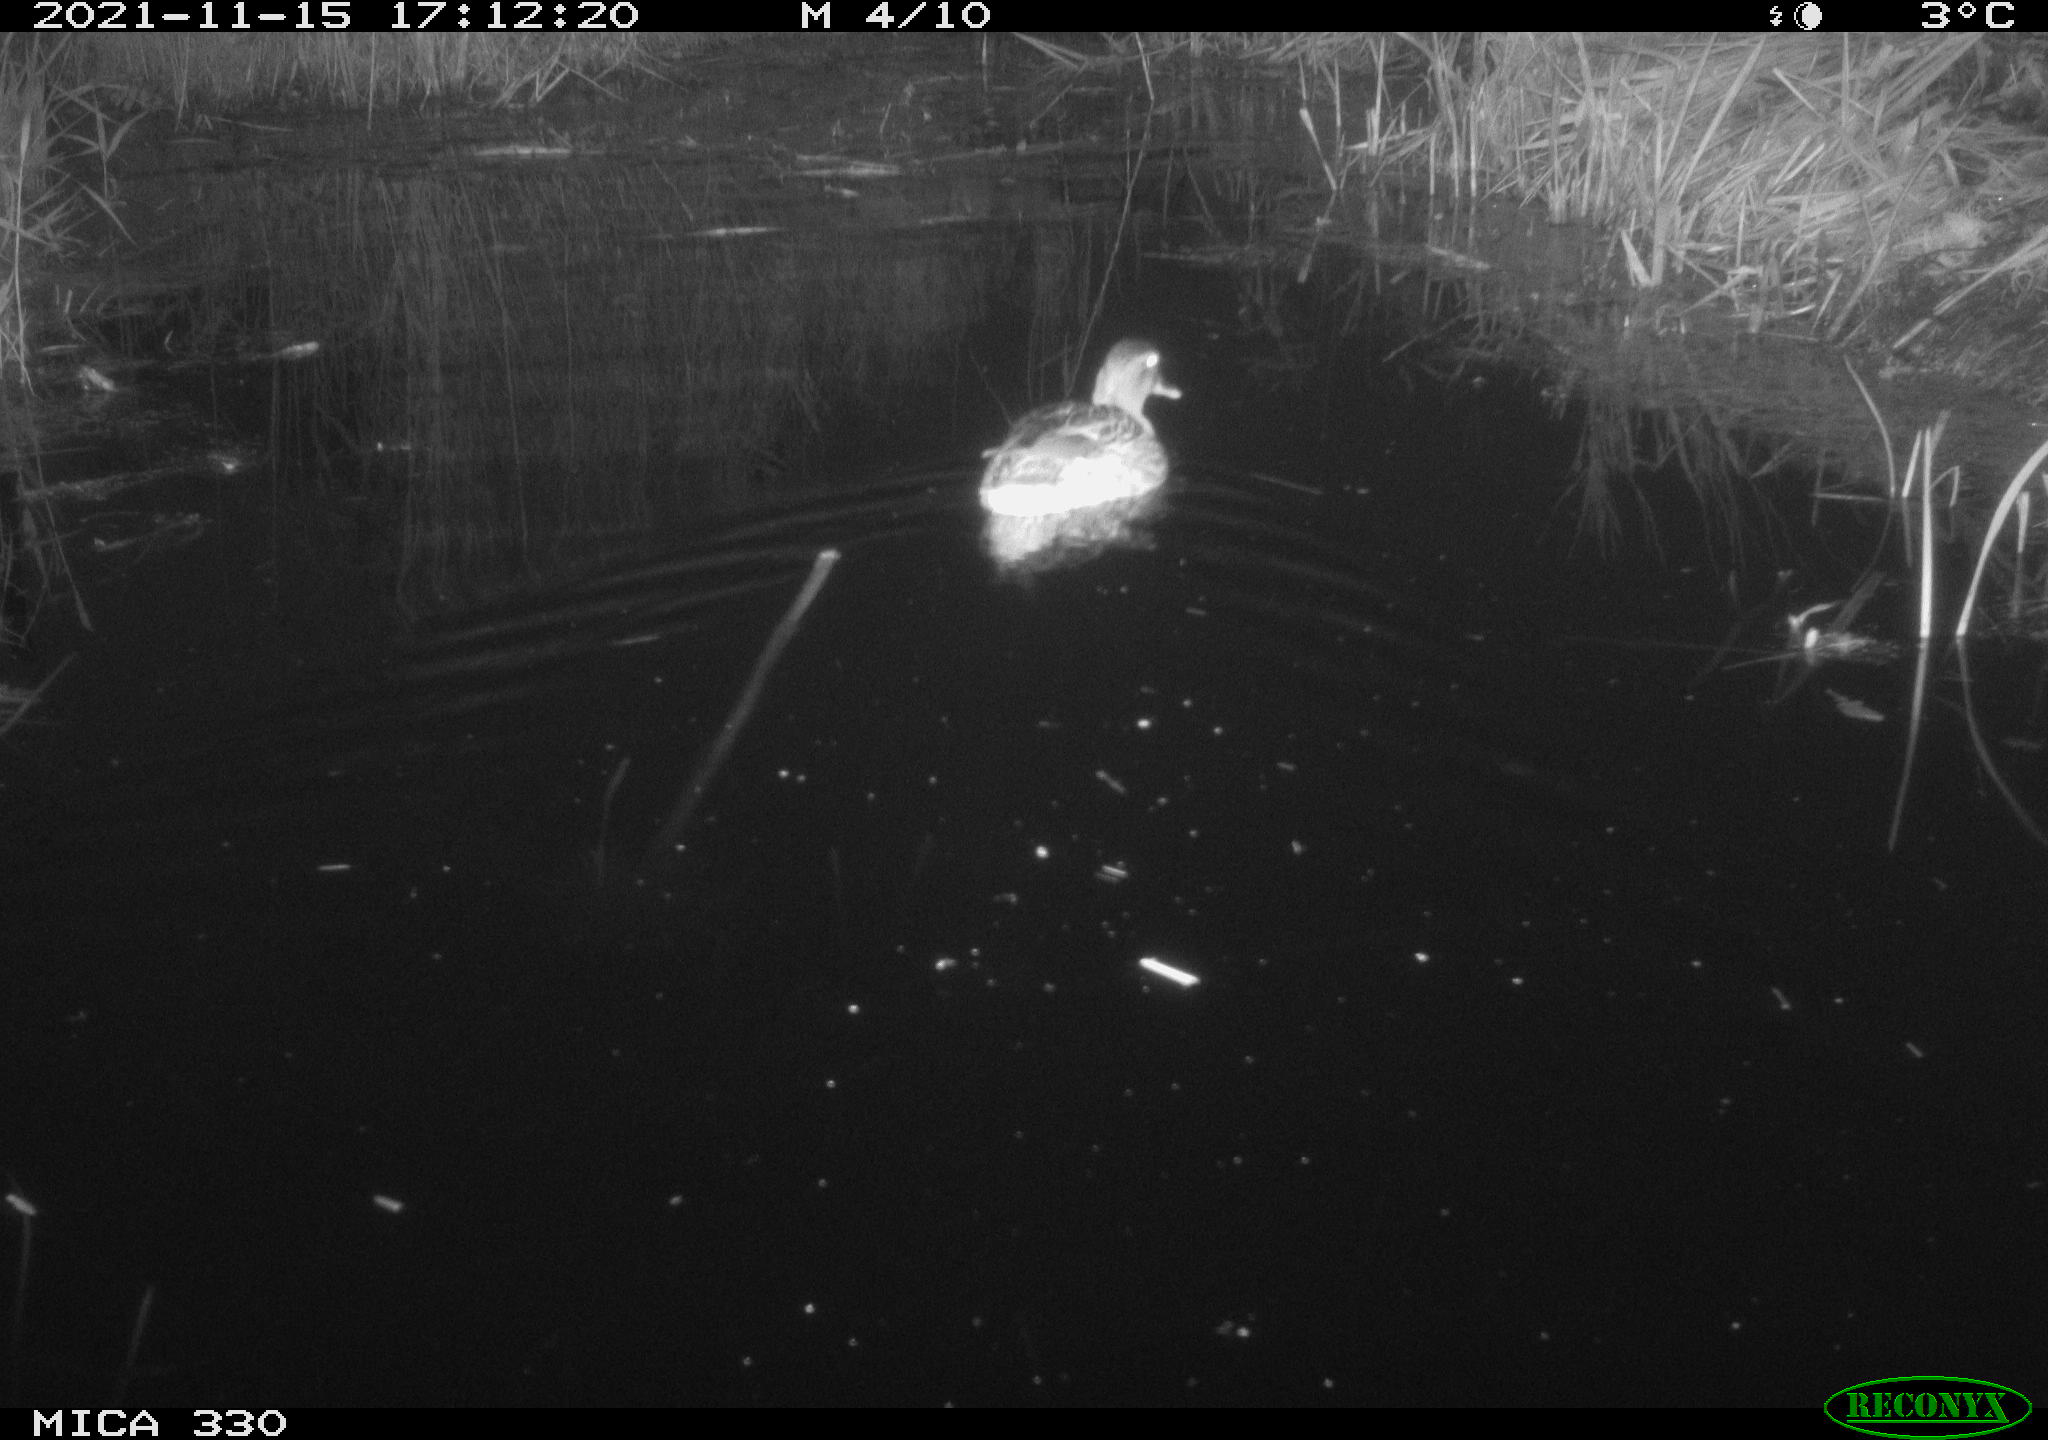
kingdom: Animalia
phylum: Chordata
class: Aves
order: Anseriformes
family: Anatidae
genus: Anas
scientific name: Anas platyrhynchos
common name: Mallard
